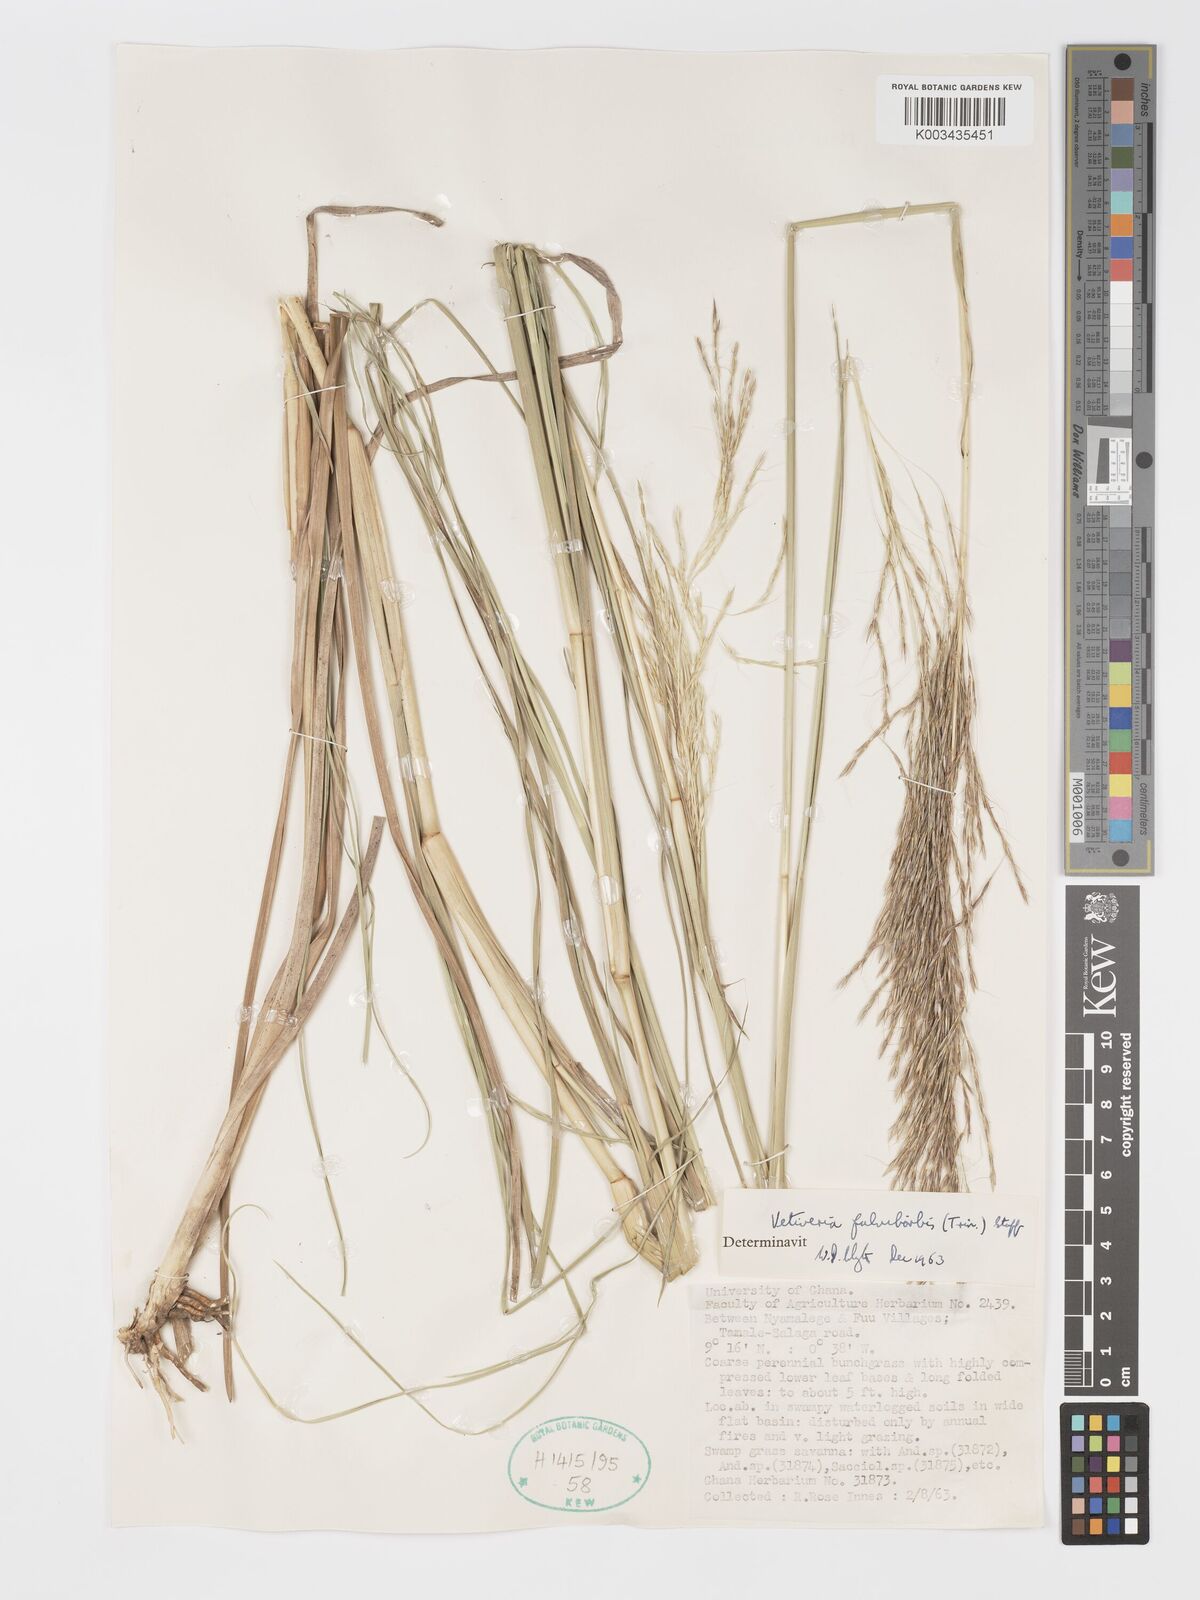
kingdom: Plantae
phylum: Tracheophyta
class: Liliopsida
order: Poales
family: Poaceae
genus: Chrysopogon
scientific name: Chrysopogon fulvibarbis
